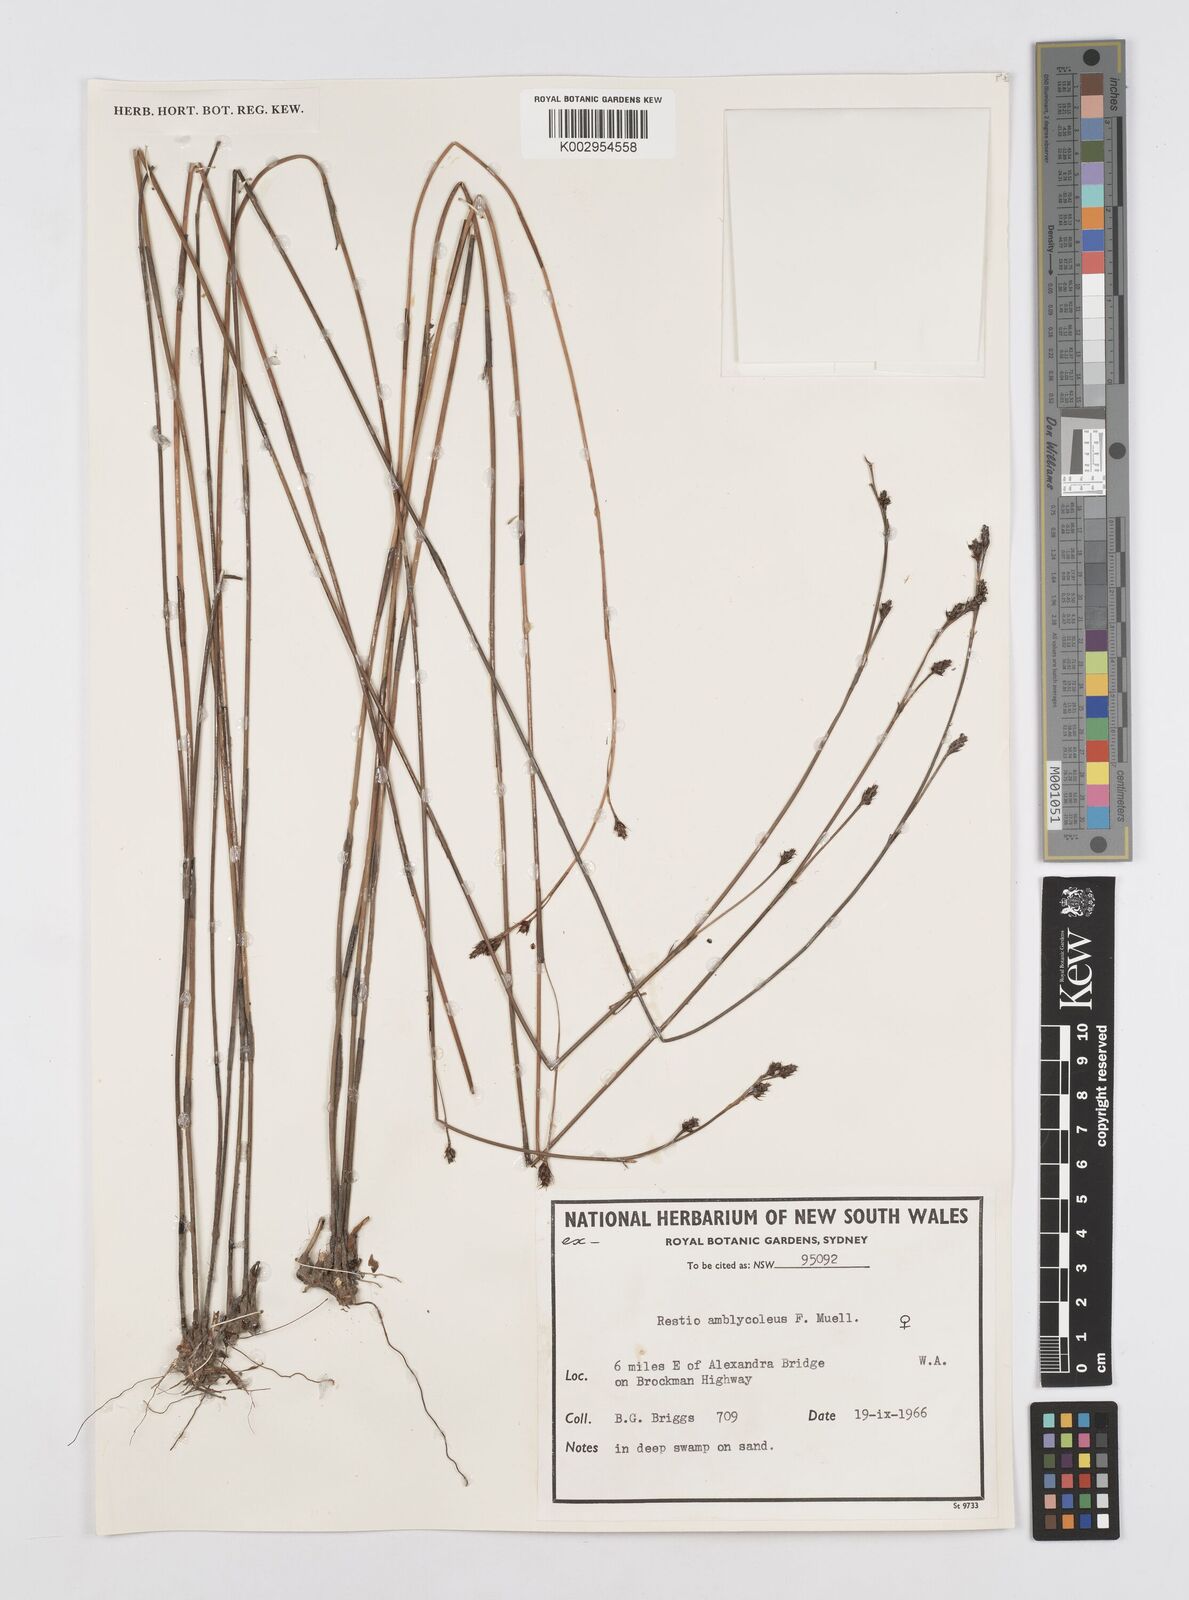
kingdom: Plantae
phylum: Tracheophyta
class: Liliopsida
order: Poales
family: Restionaceae
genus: Chordifex
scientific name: Chordifex amblycoleus
